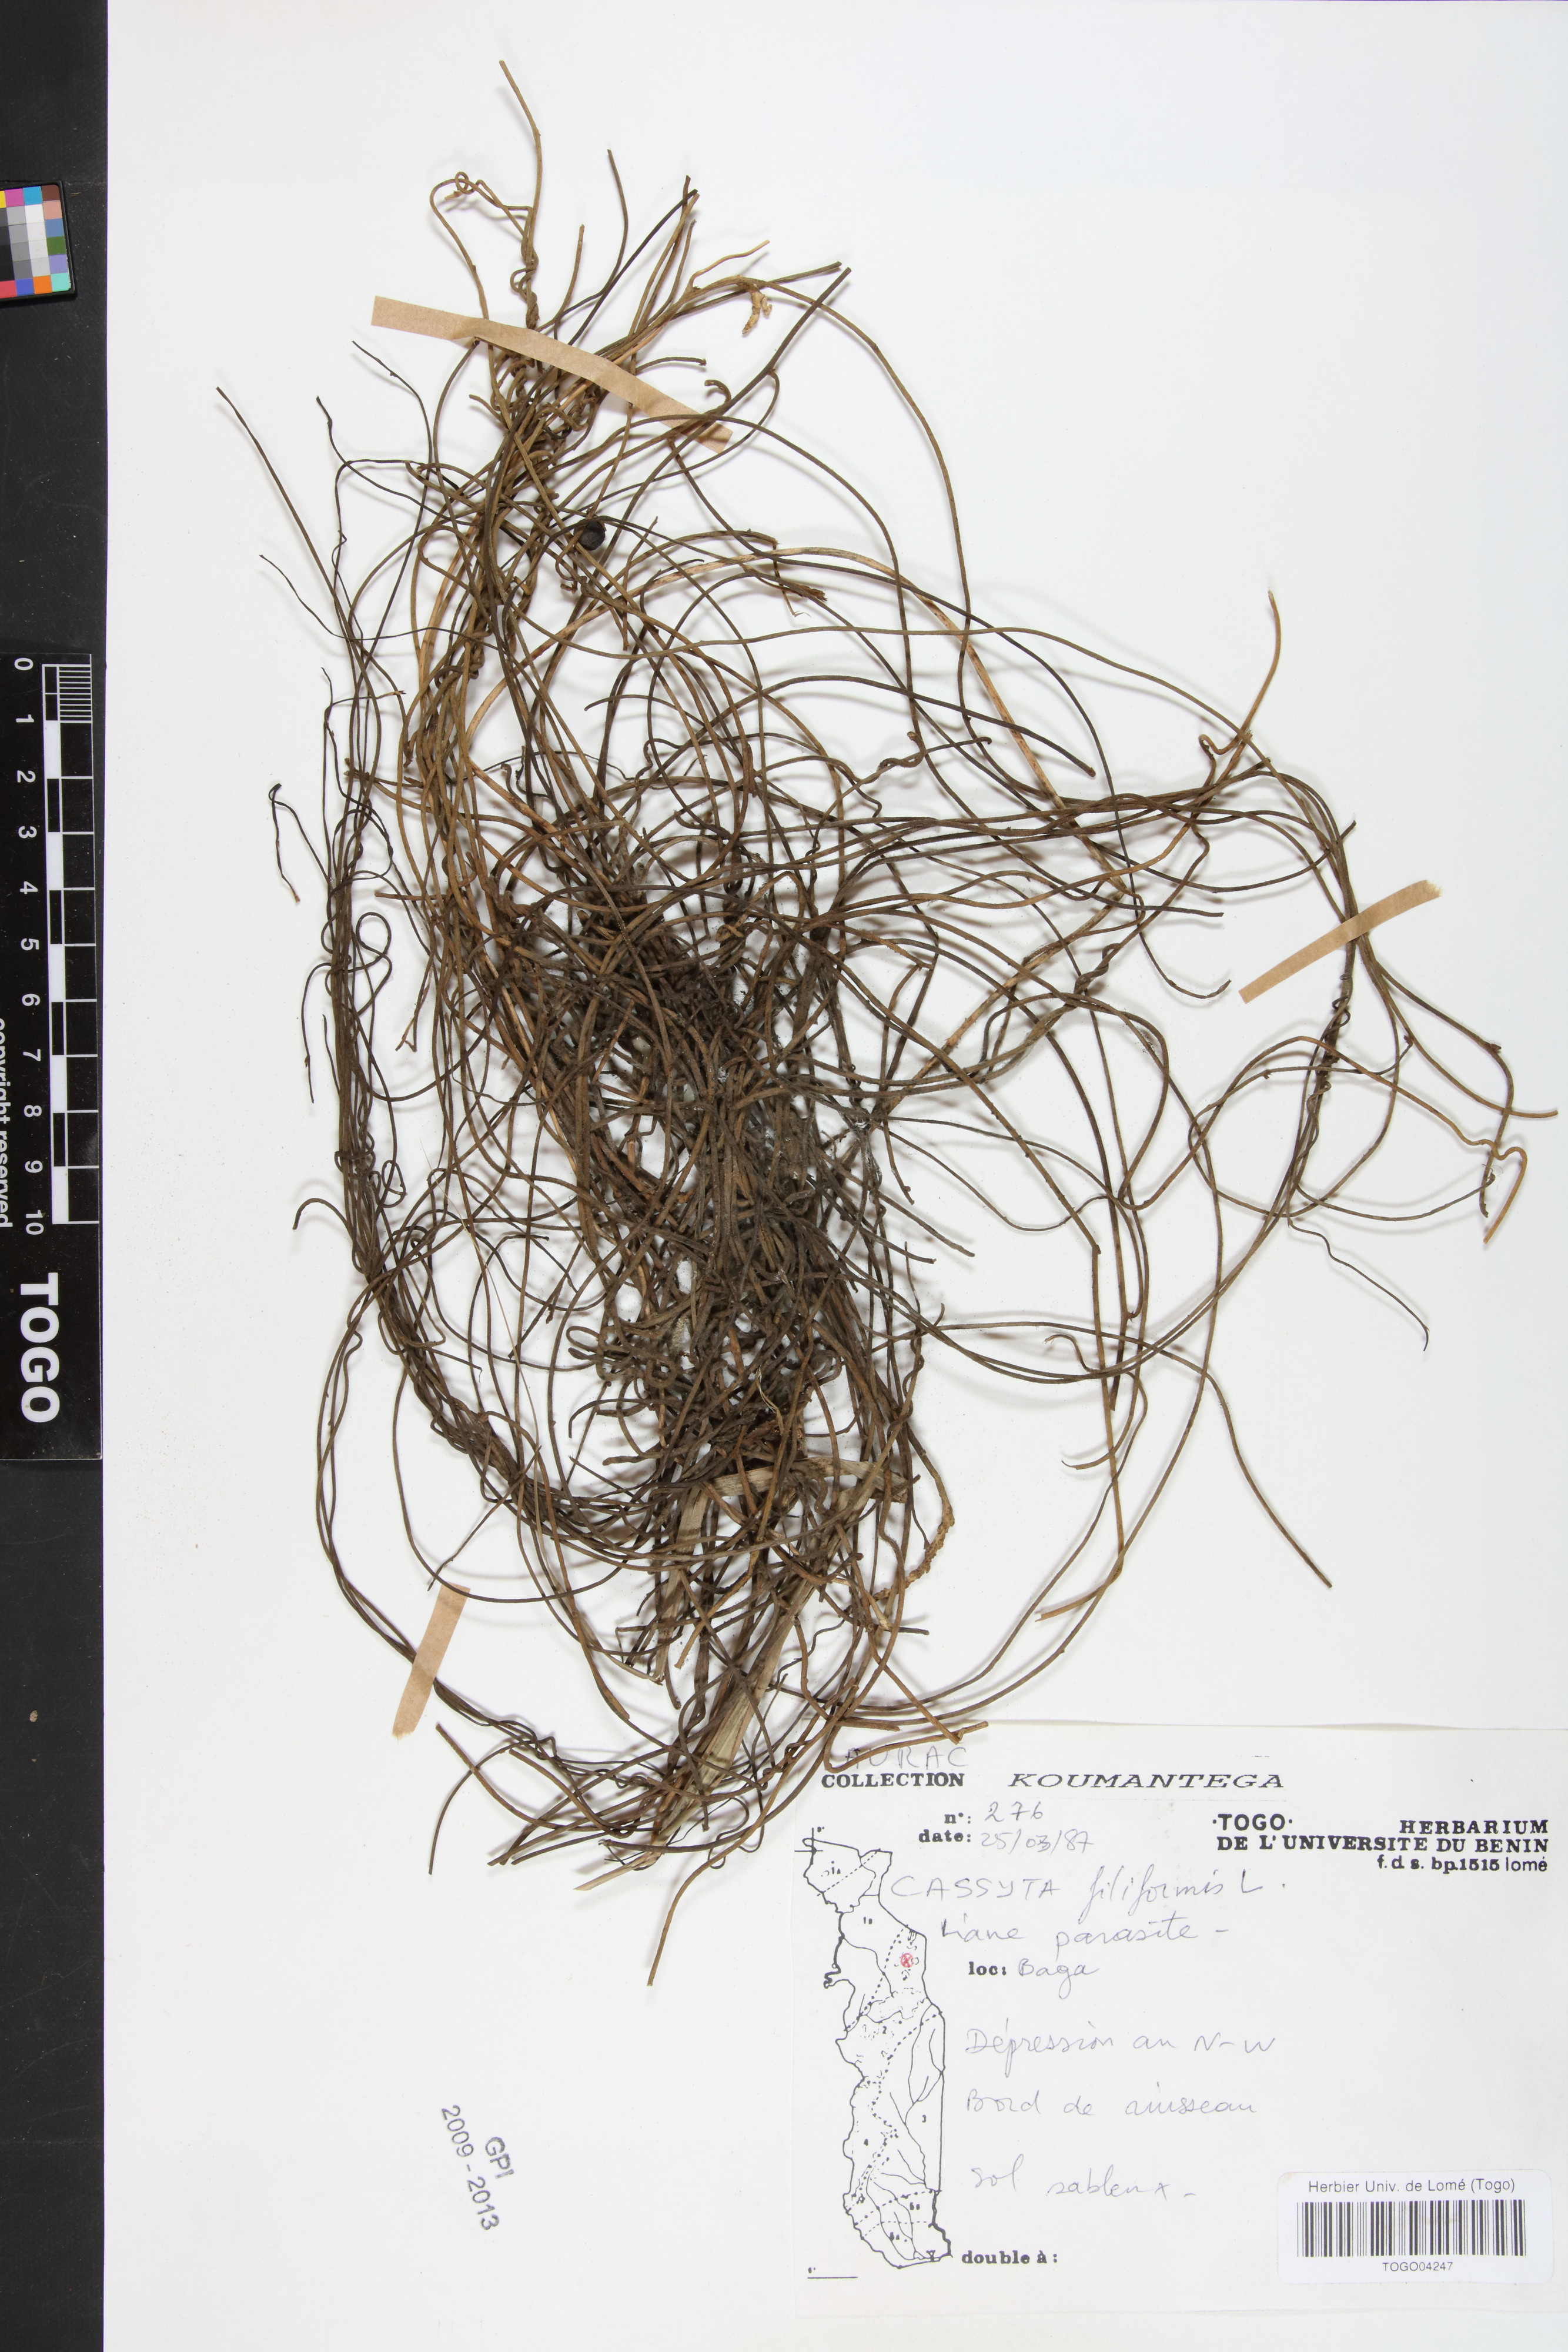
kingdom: Plantae
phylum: Tracheophyta
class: Magnoliopsida
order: Laurales
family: Lauraceae
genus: Cassytha
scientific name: Cassytha filiformis
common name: Dodder-laurel
